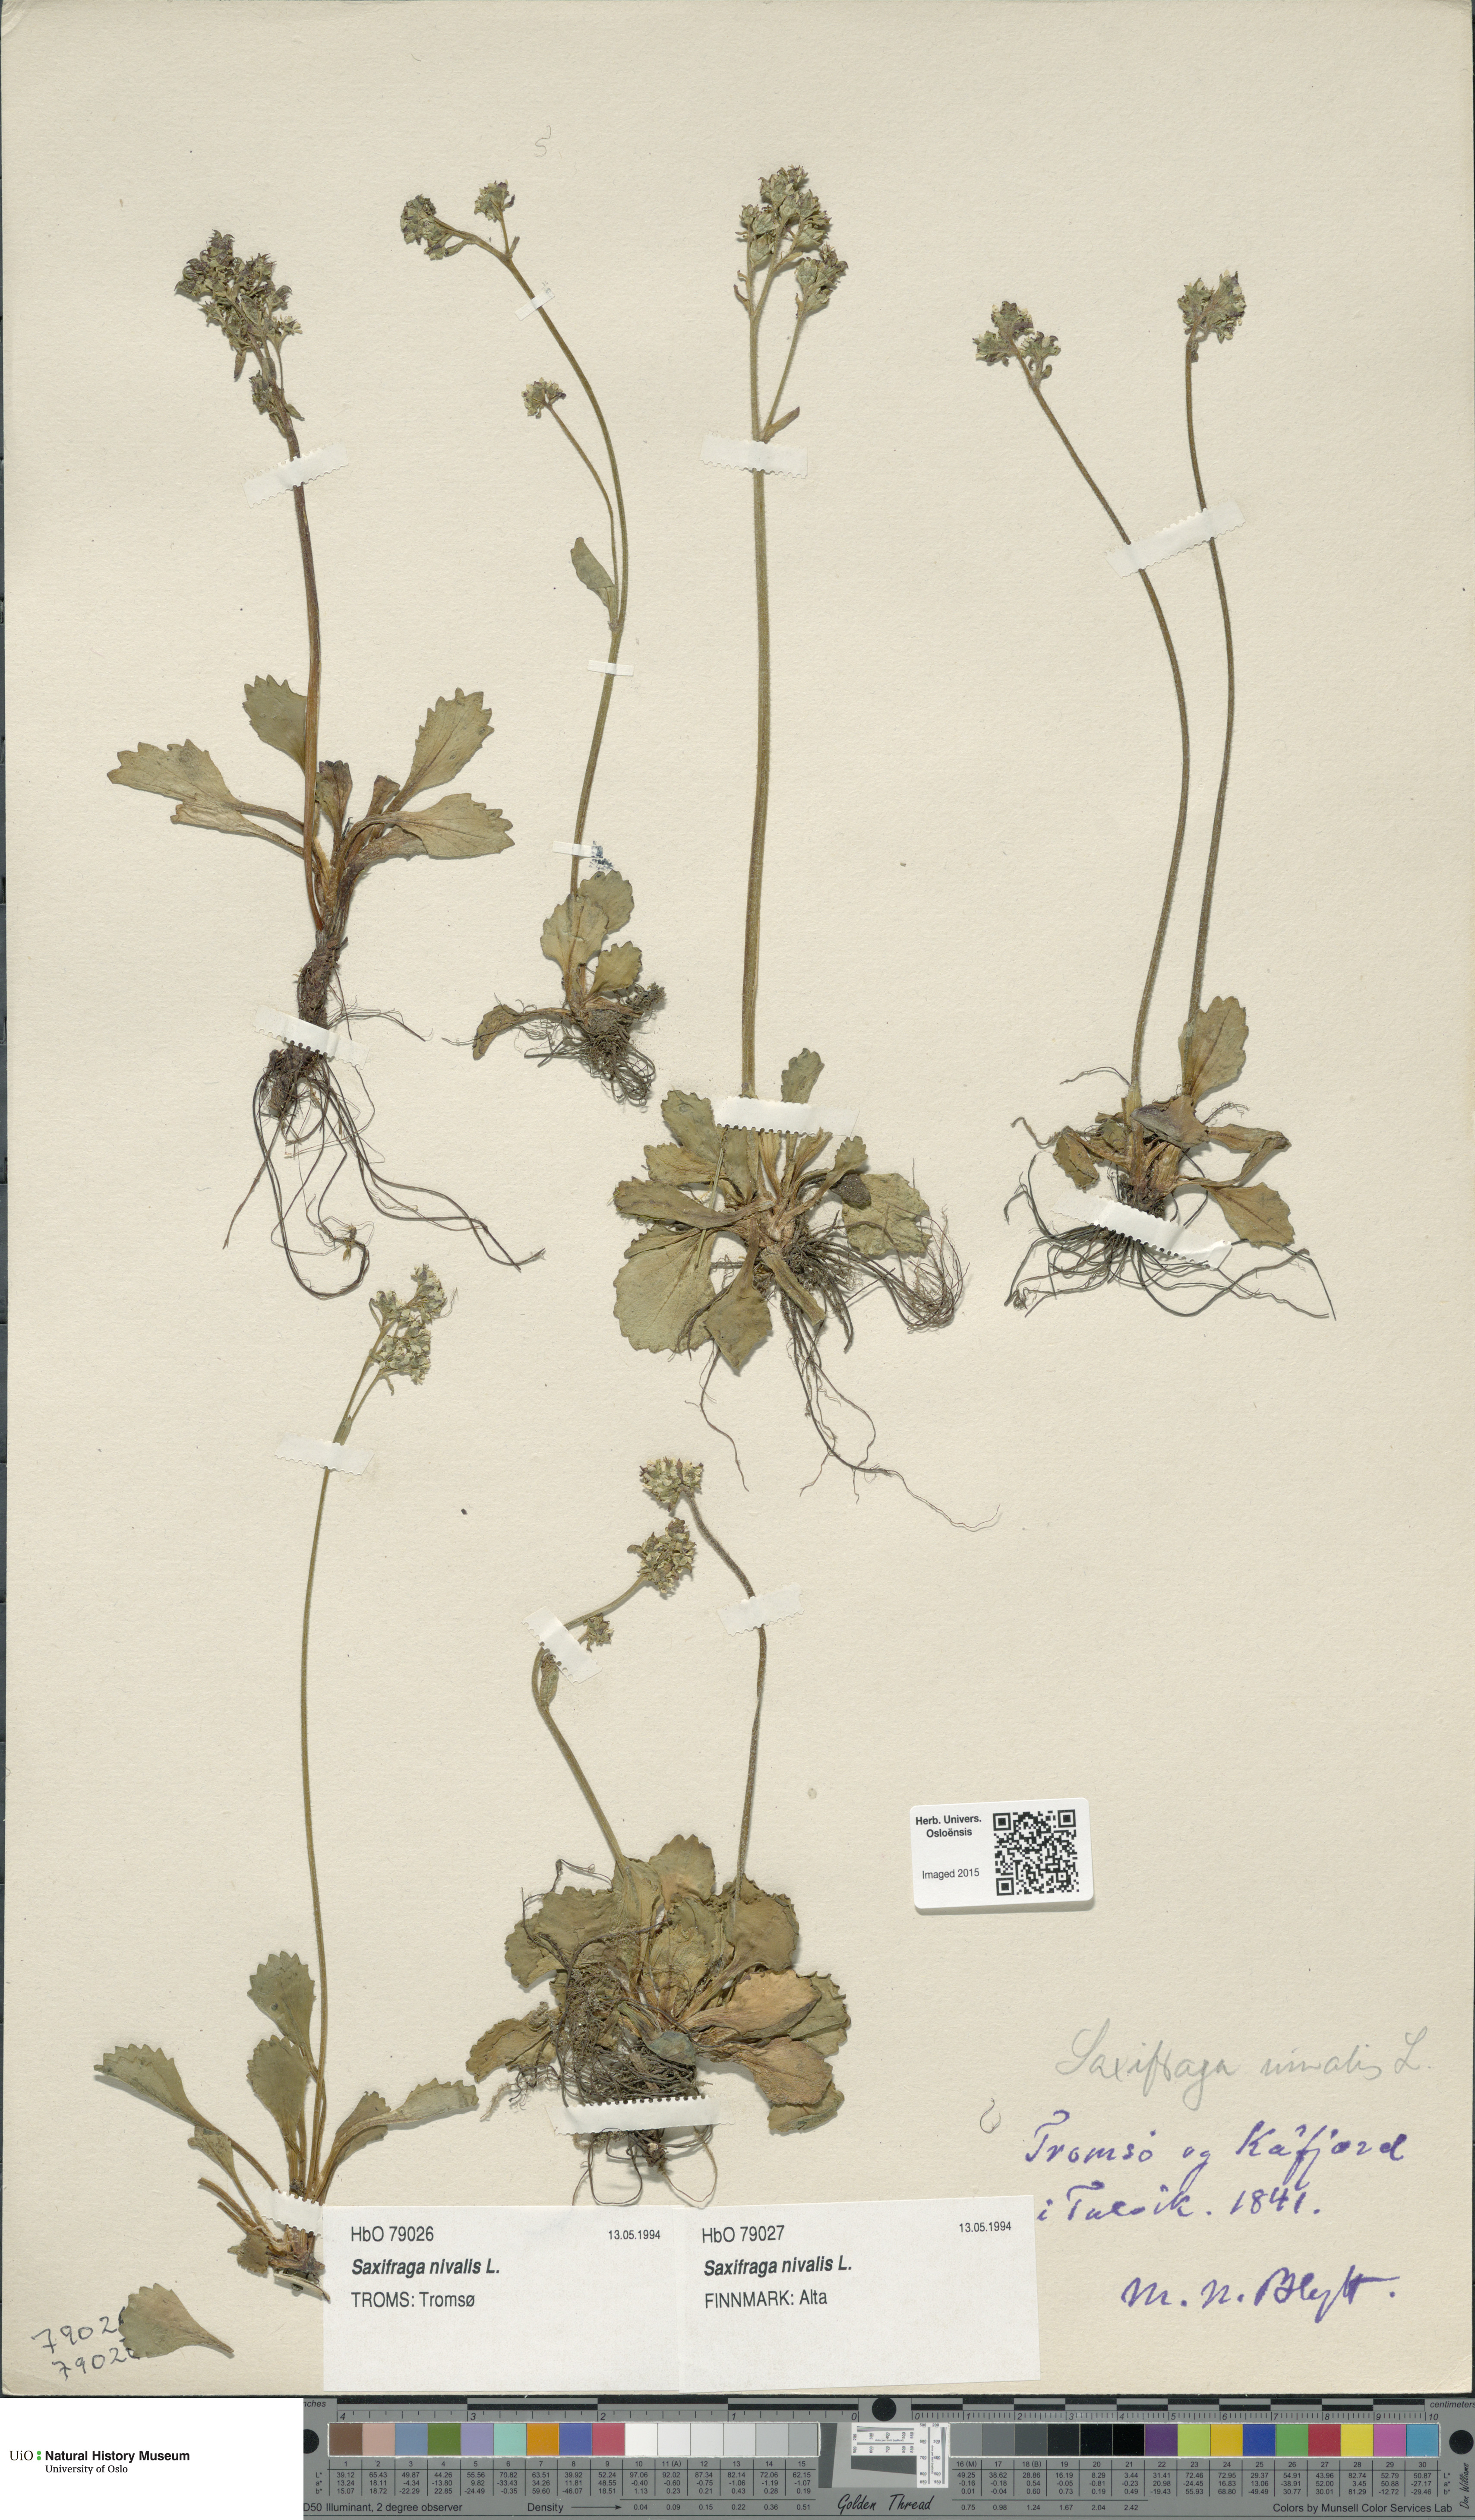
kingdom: Plantae
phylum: Tracheophyta
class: Magnoliopsida
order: Saxifragales
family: Saxifragaceae
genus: Micranthes
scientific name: Micranthes nivalis
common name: Alpine saxifrage
